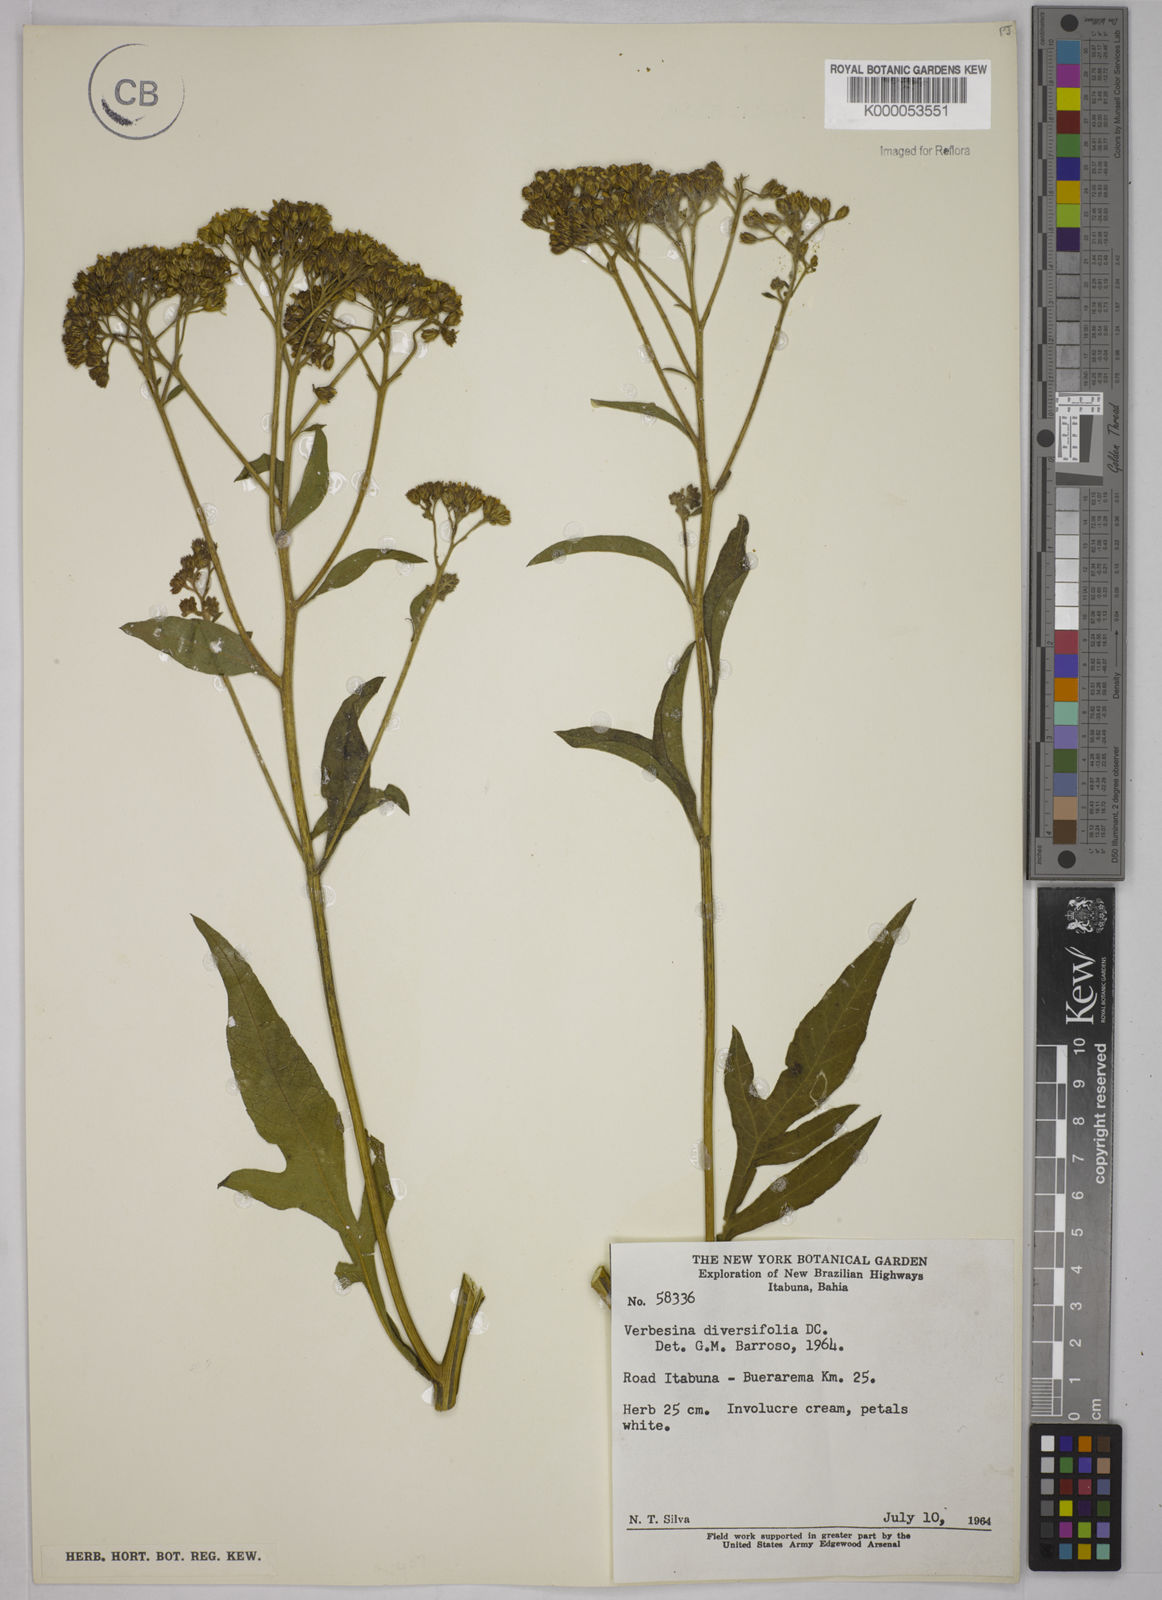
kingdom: Plantae
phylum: Tracheophyta
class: Magnoliopsida
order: Asterales
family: Asteraceae
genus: Verbesina
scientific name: Verbesina macrophylla
